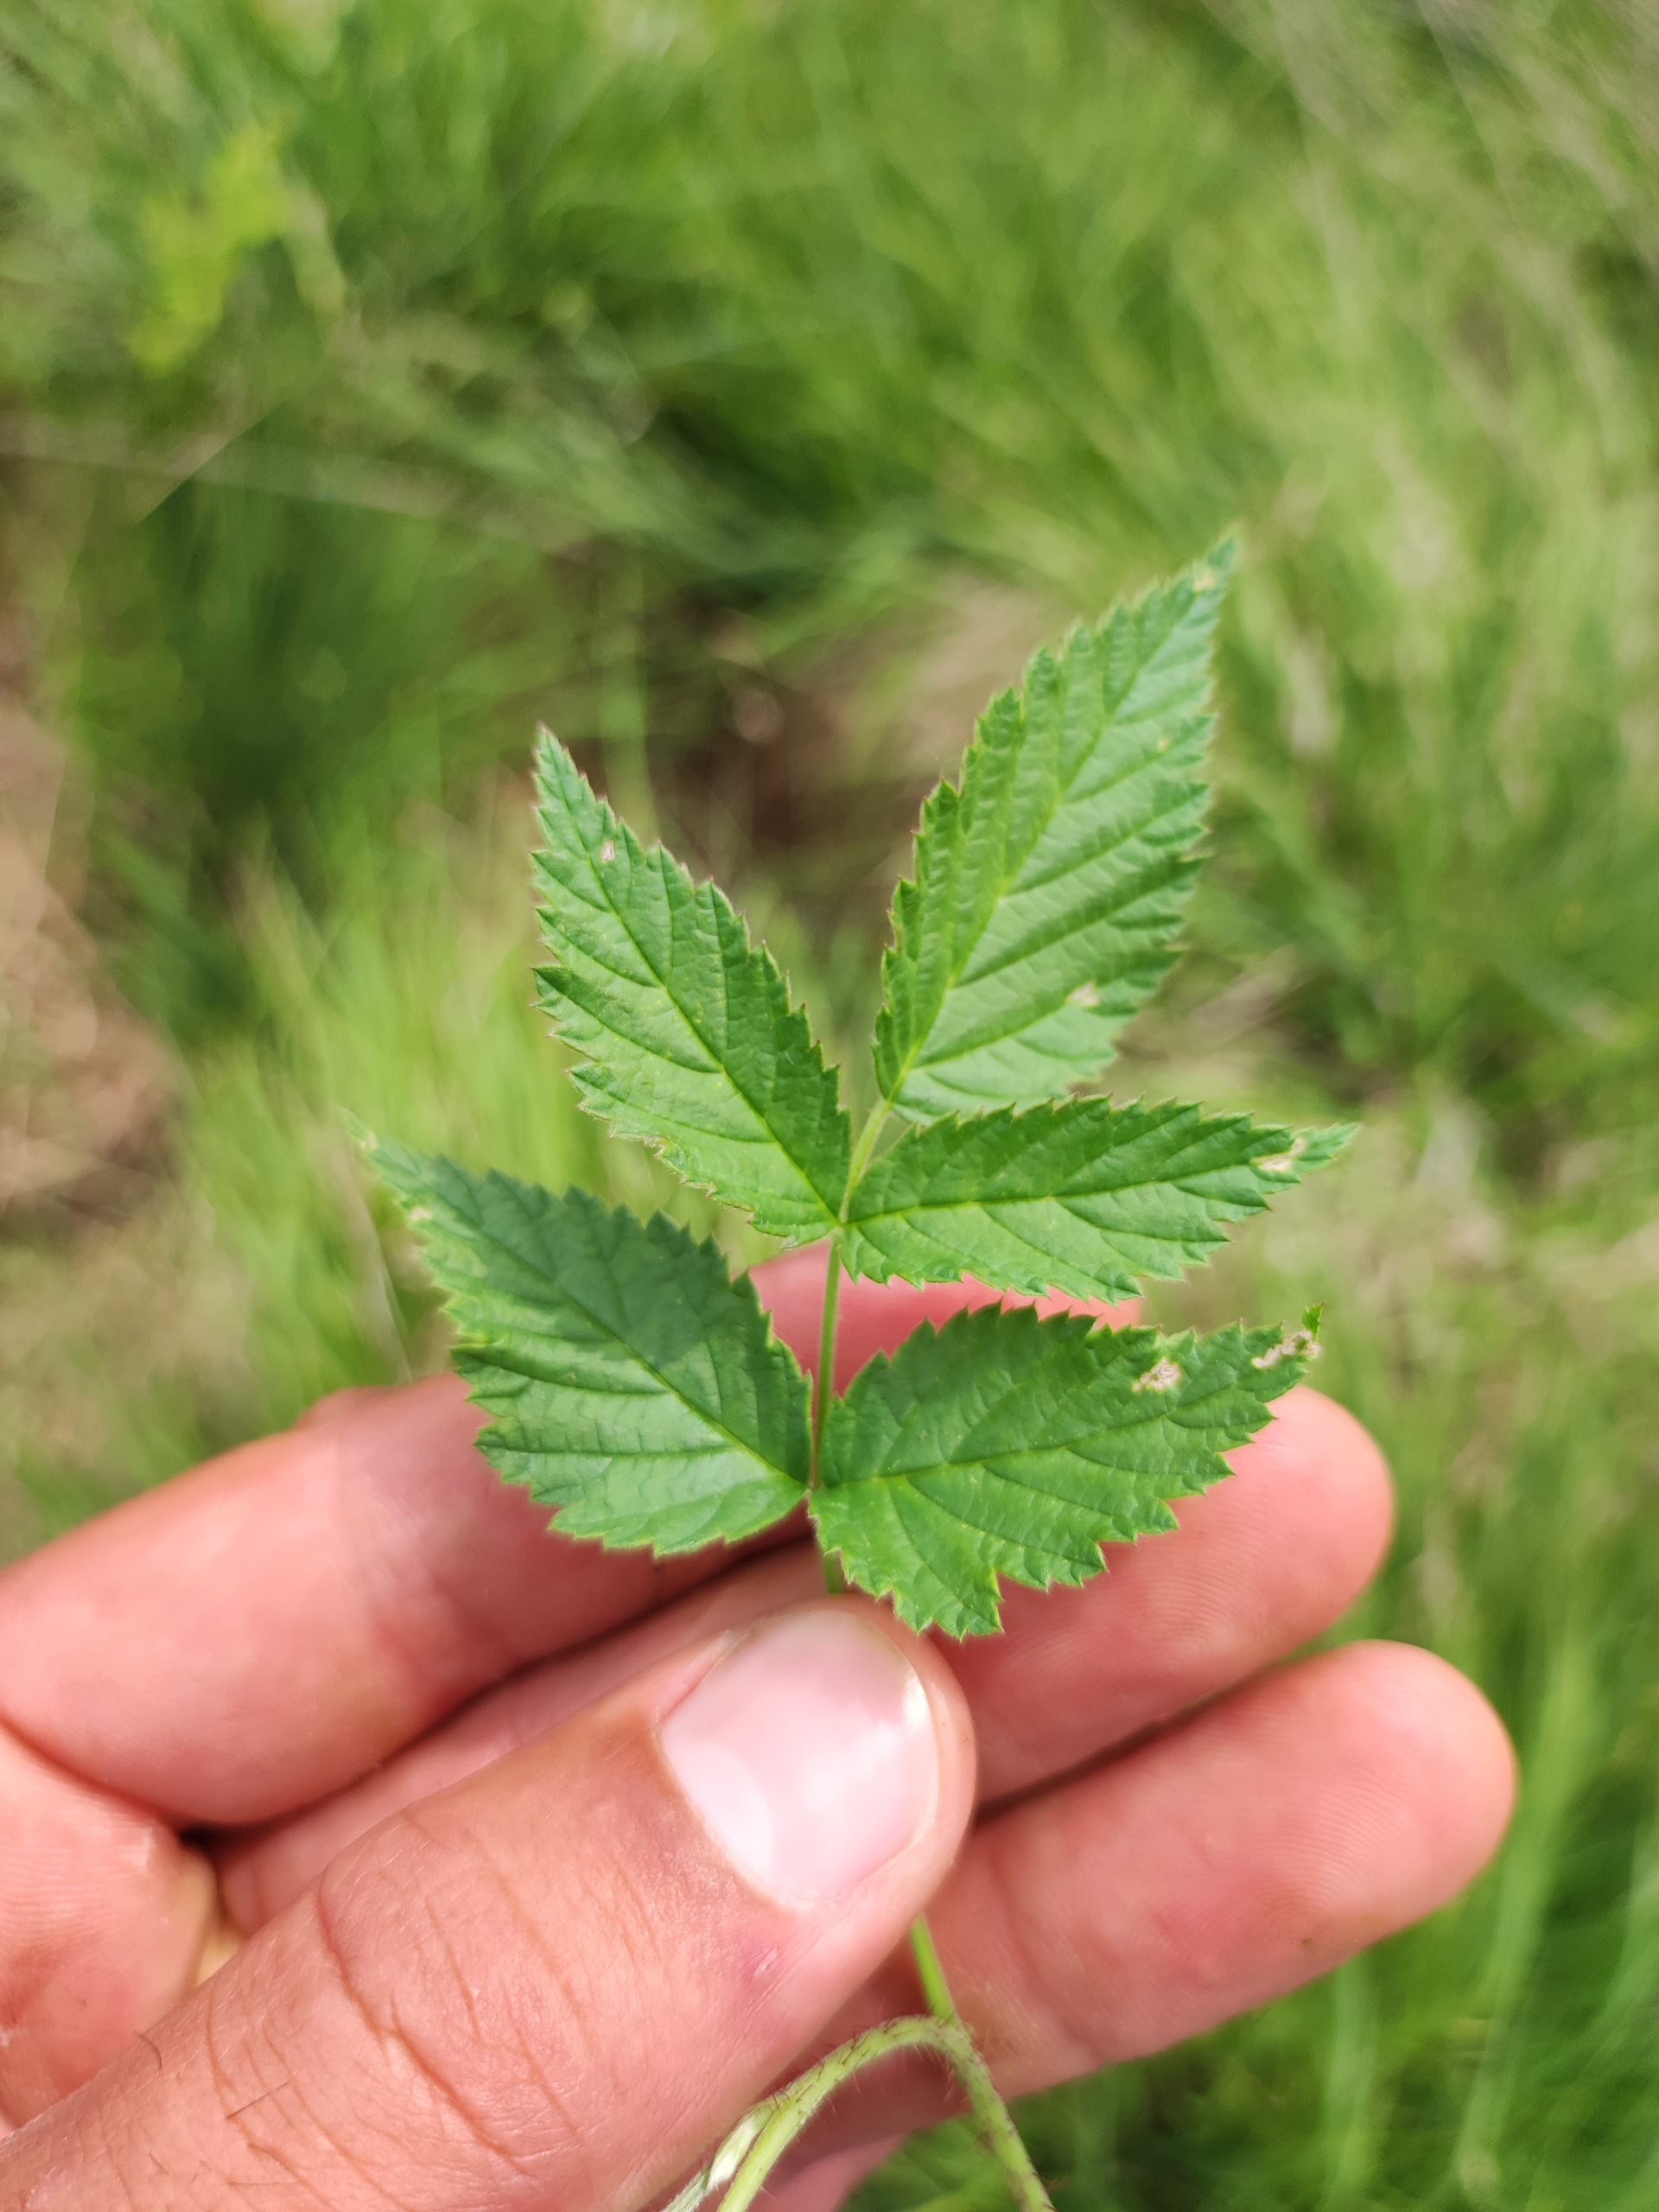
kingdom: Plantae
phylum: Tracheophyta
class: Magnoliopsida
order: Rosales
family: Rosaceae
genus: Rubus
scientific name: Rubus idaeus
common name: Hindbær
